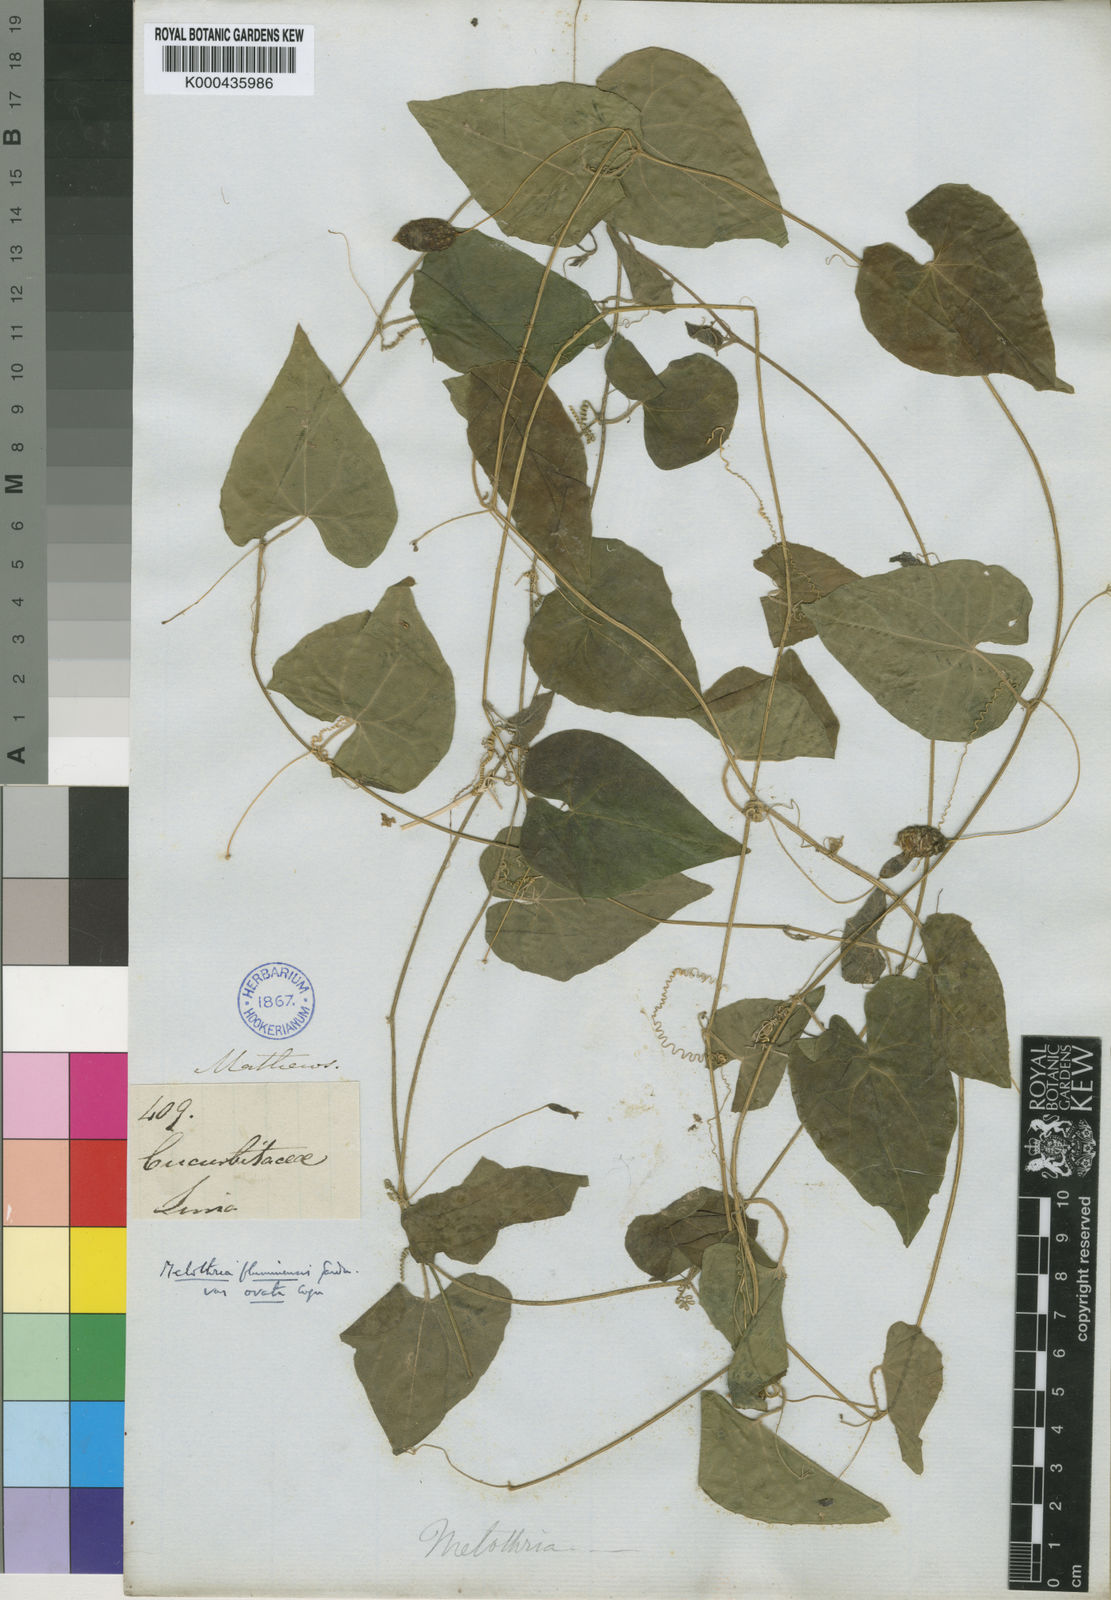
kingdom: Plantae
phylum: Tracheophyta
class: Magnoliopsida
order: Cucurbitales
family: Cucurbitaceae
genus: Melothria
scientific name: Melothria pendula
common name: Creeping-cucumber
